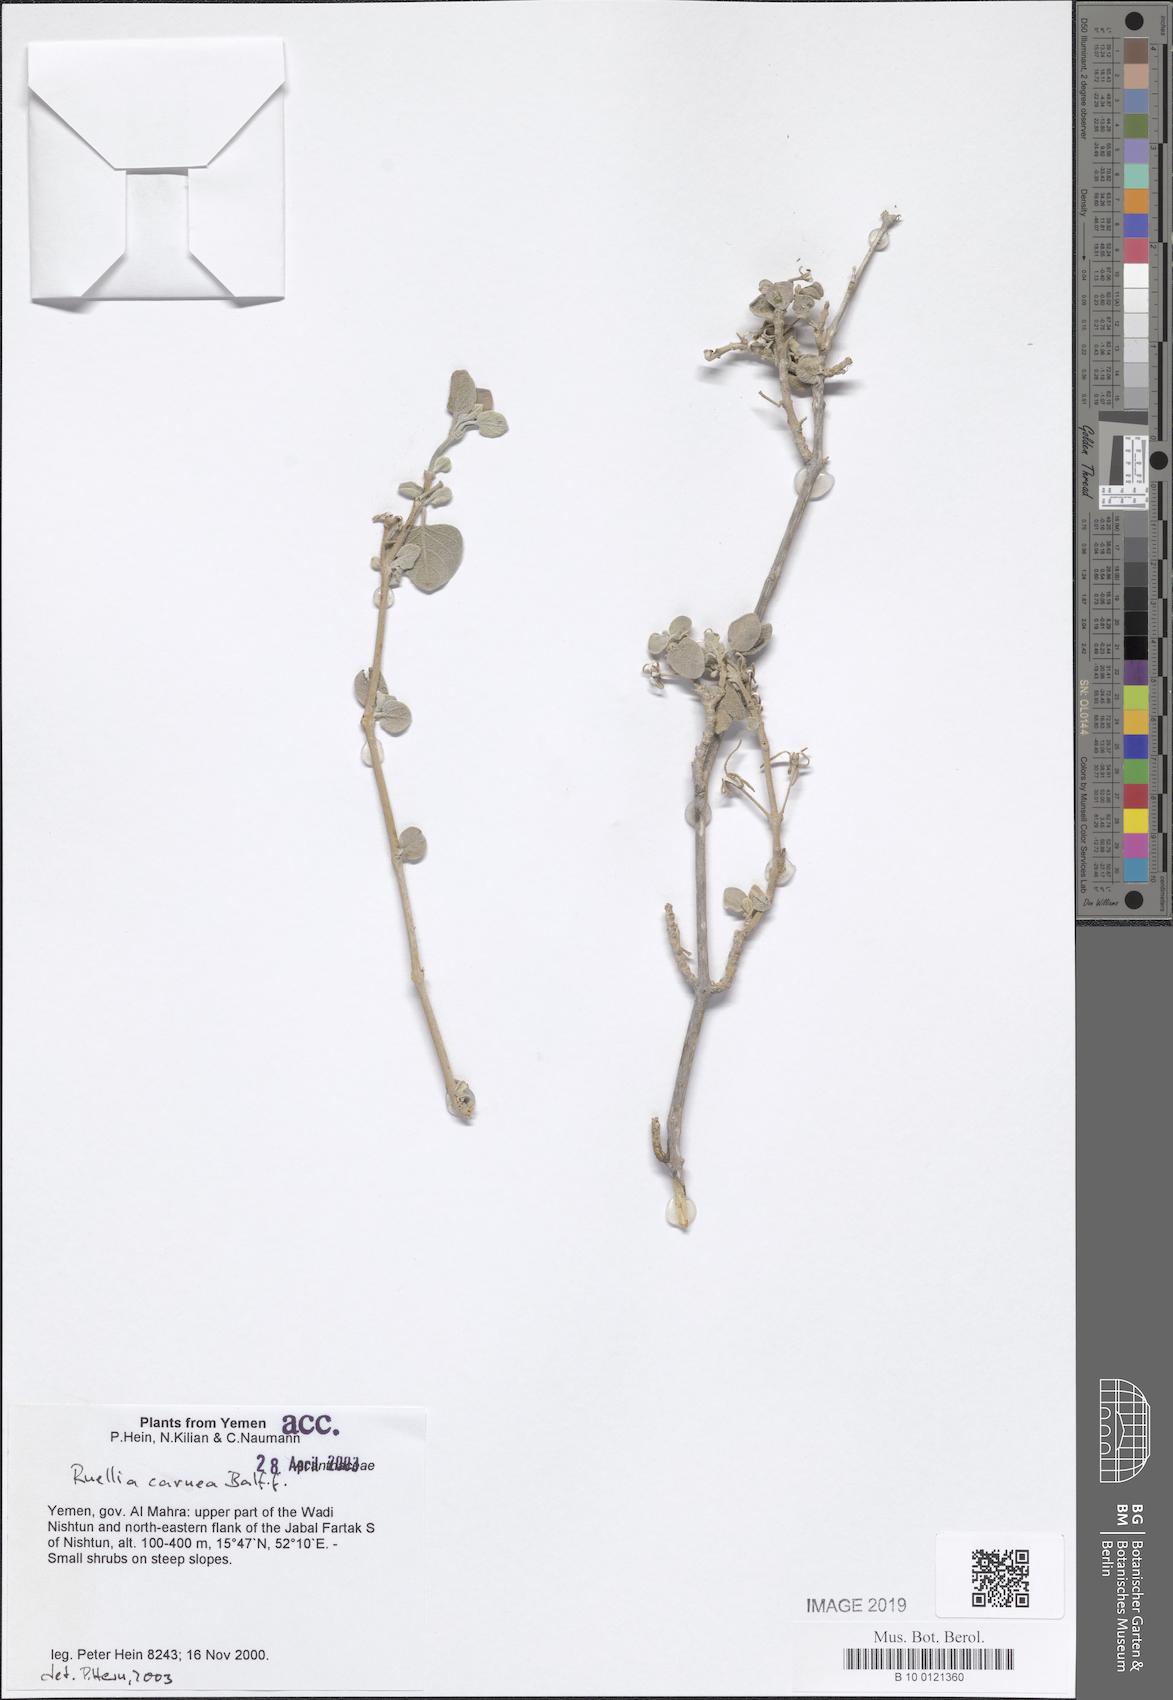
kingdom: Plantae
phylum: Tracheophyta
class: Magnoliopsida
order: Lamiales
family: Acanthaceae
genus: Ruellia
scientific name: Ruellia carnea
